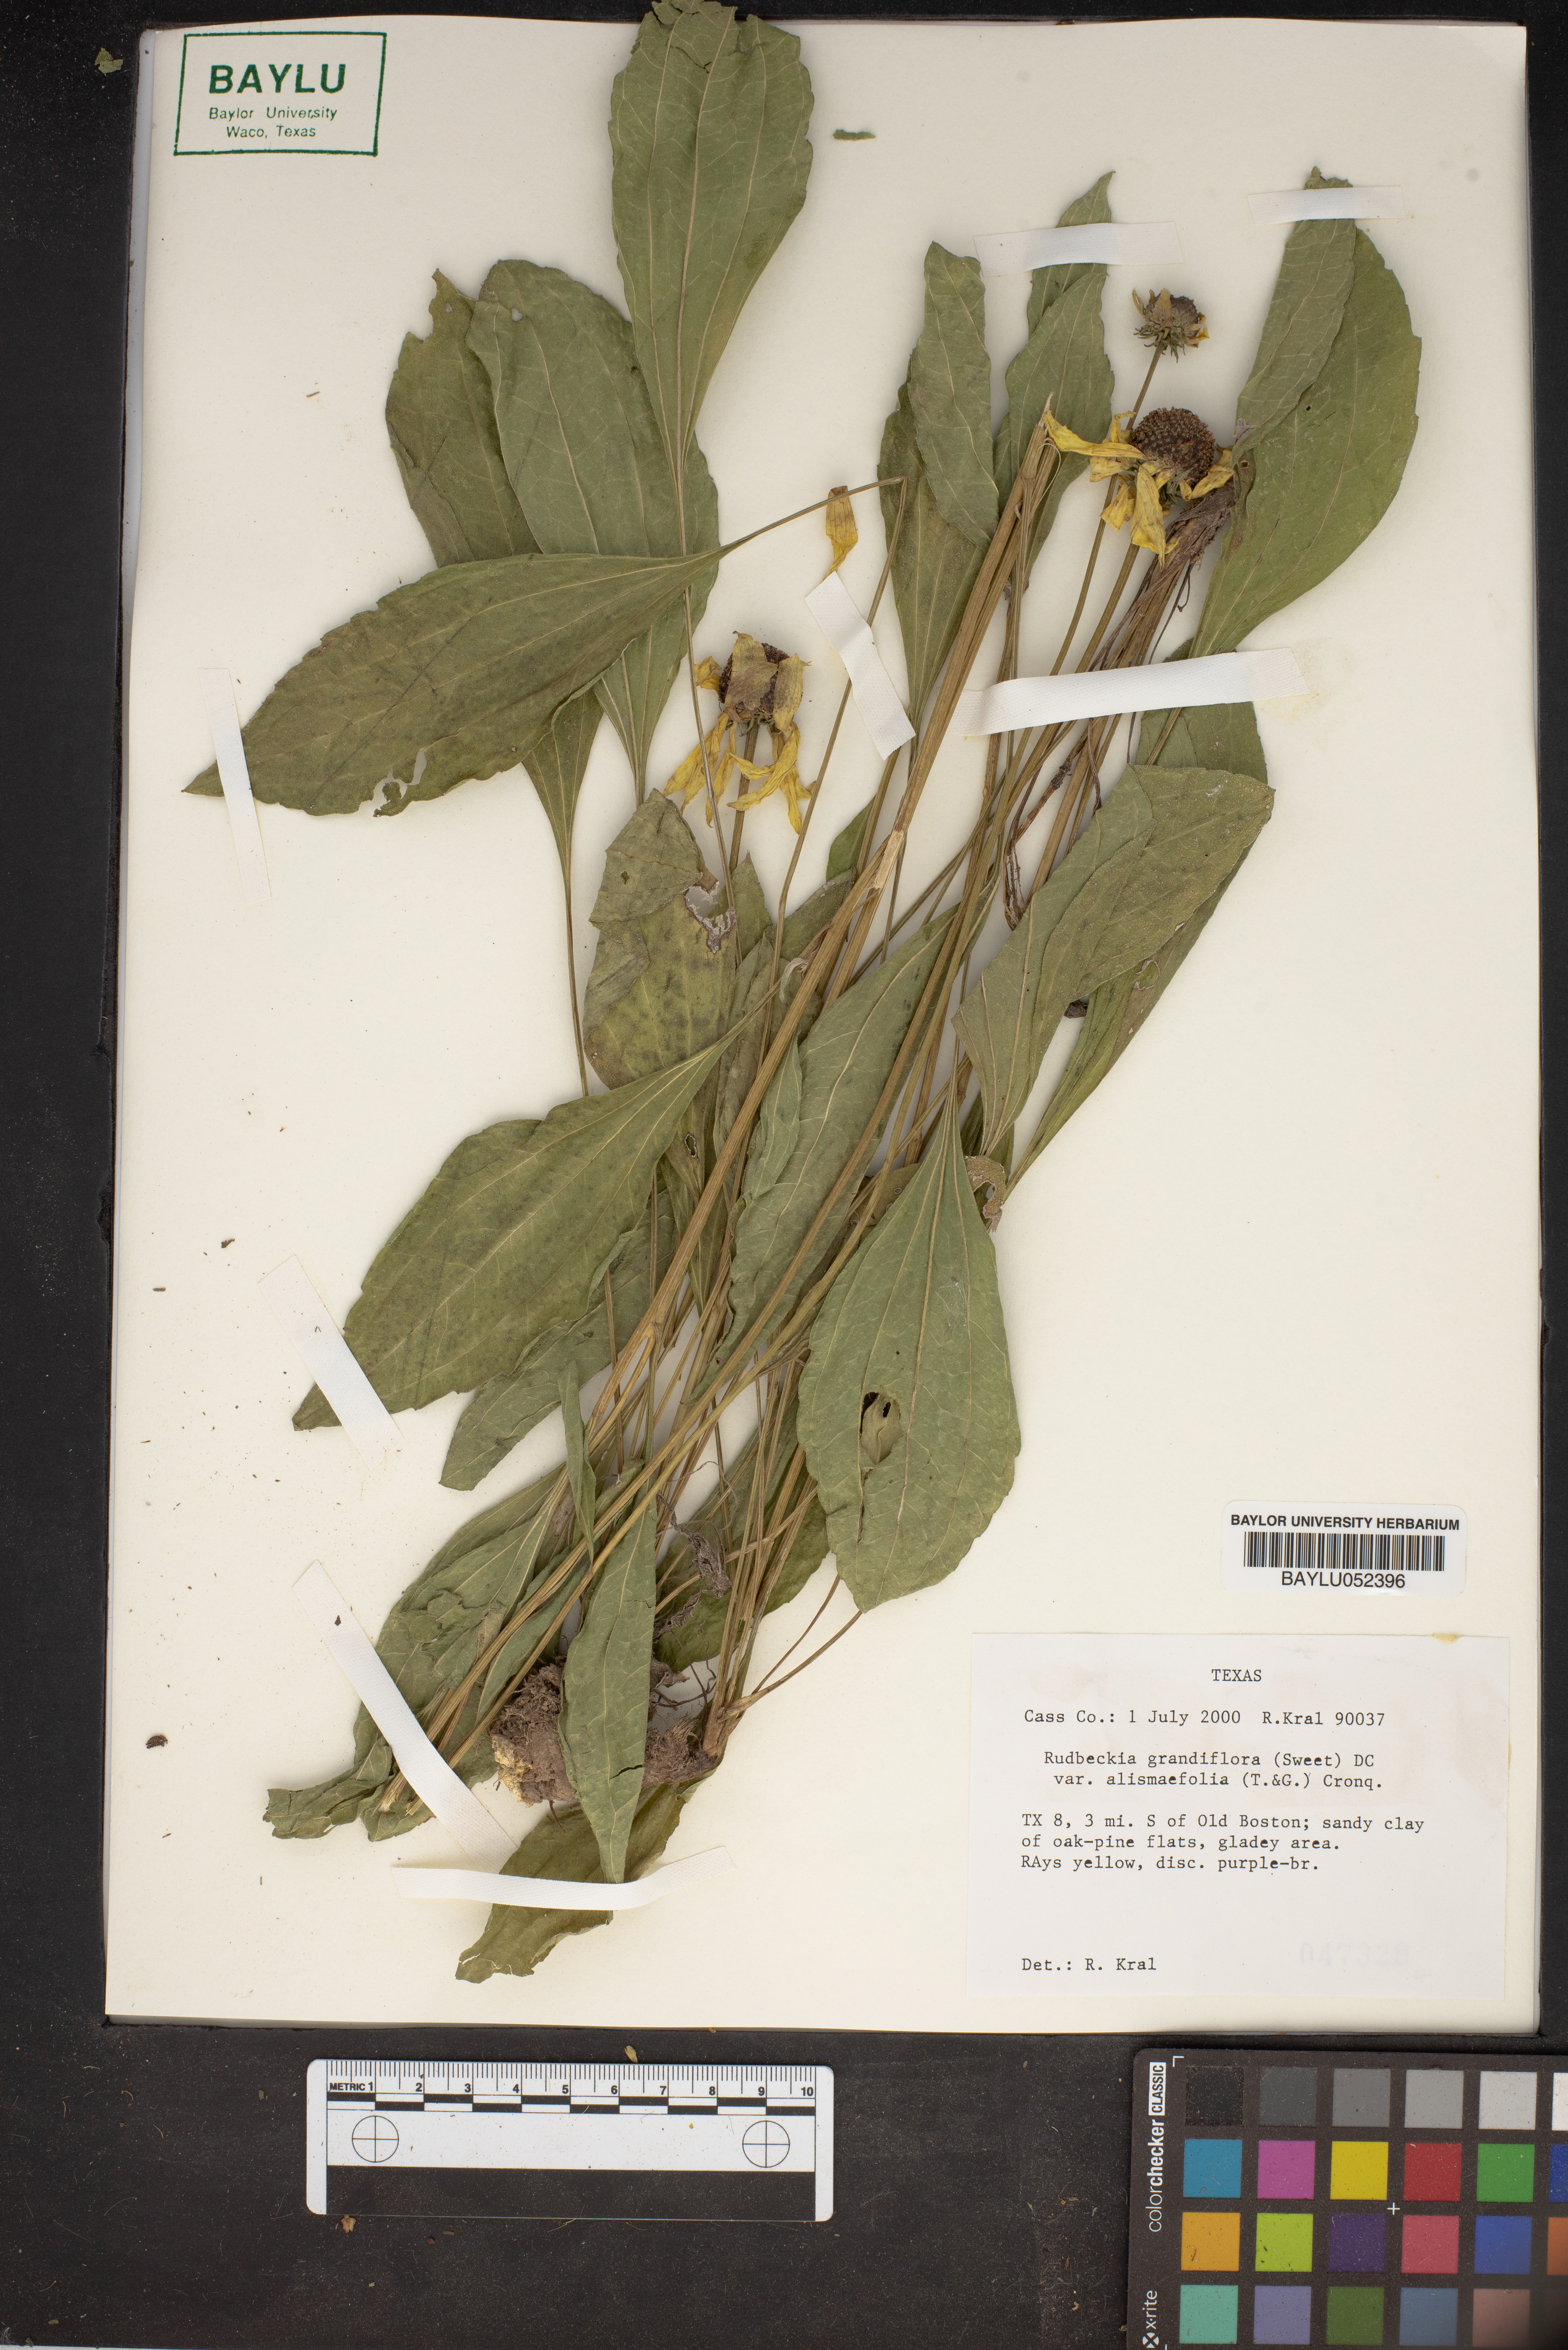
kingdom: Plantae
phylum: Tracheophyta
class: Magnoliopsida
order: Asterales
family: Asteraceae
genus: Rudbeckia
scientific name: Rudbeckia grandiflora
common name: Large-flowered coneflower
